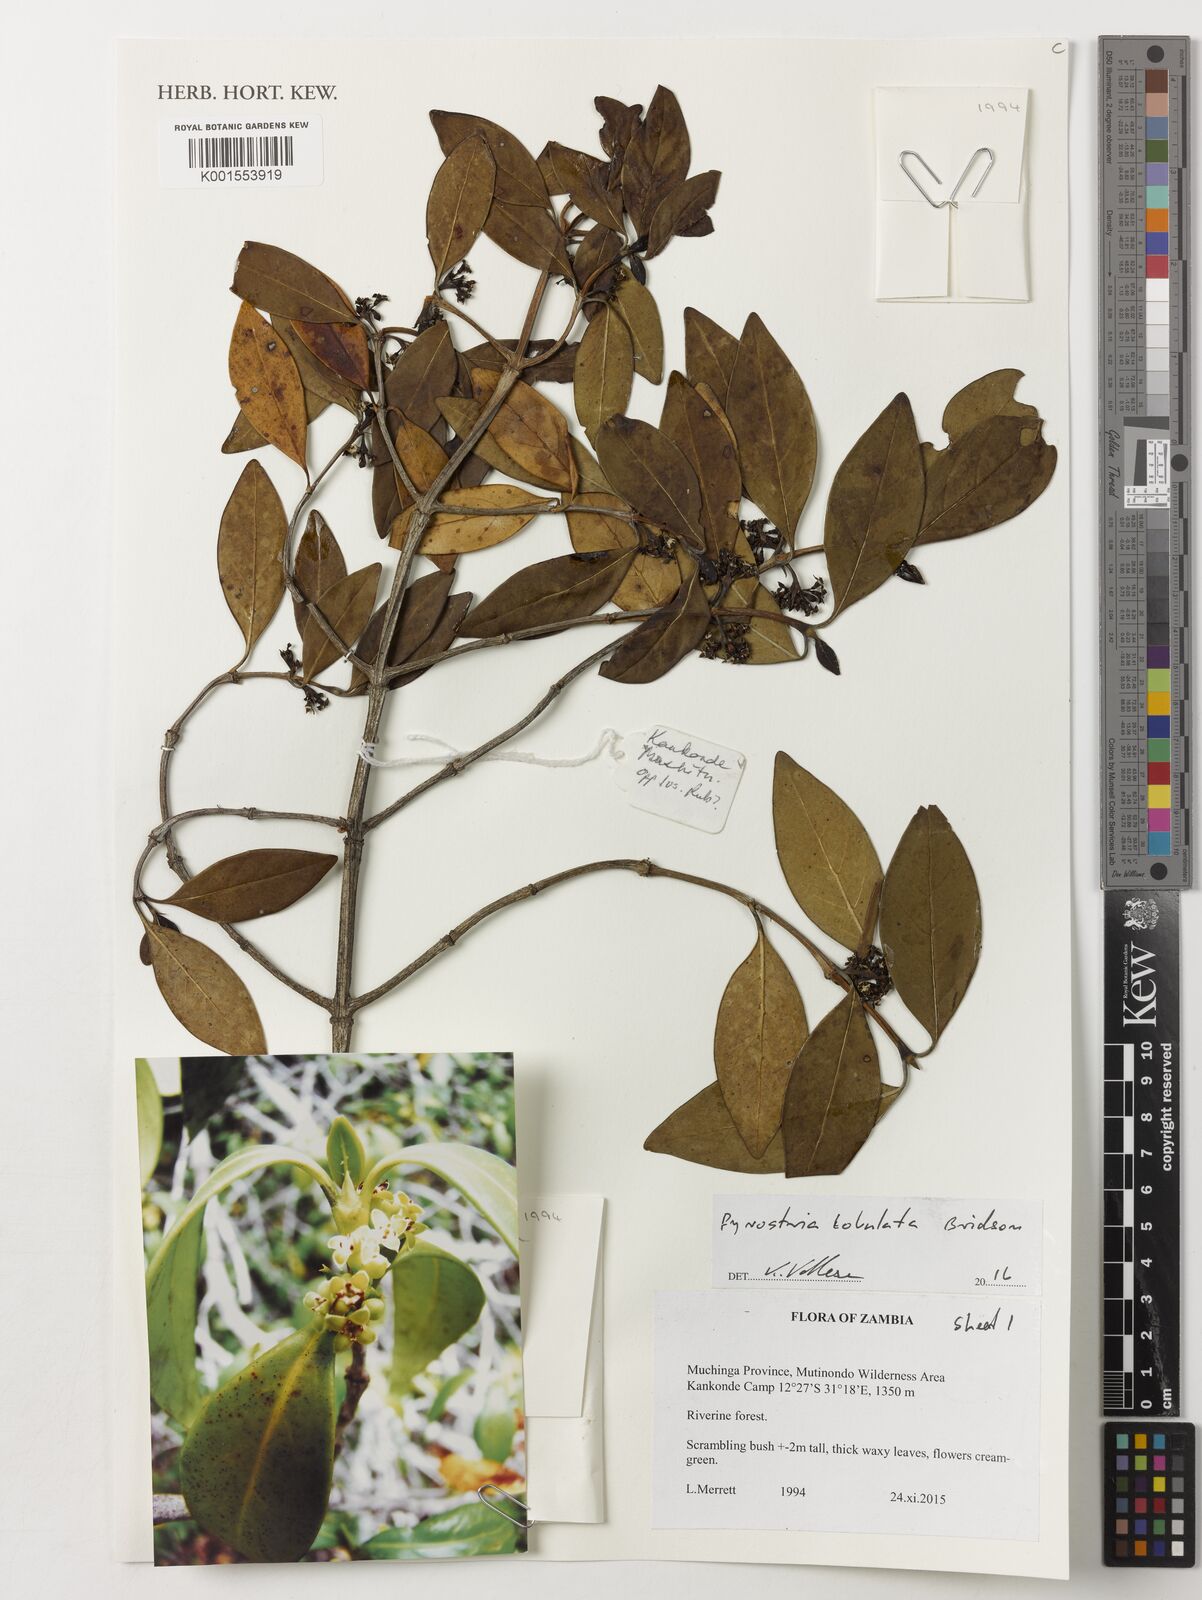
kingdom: Plantae
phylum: Tracheophyta
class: Magnoliopsida
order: Gentianales
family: Rubiaceae
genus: Pyrostria
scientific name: Pyrostria lobulata
